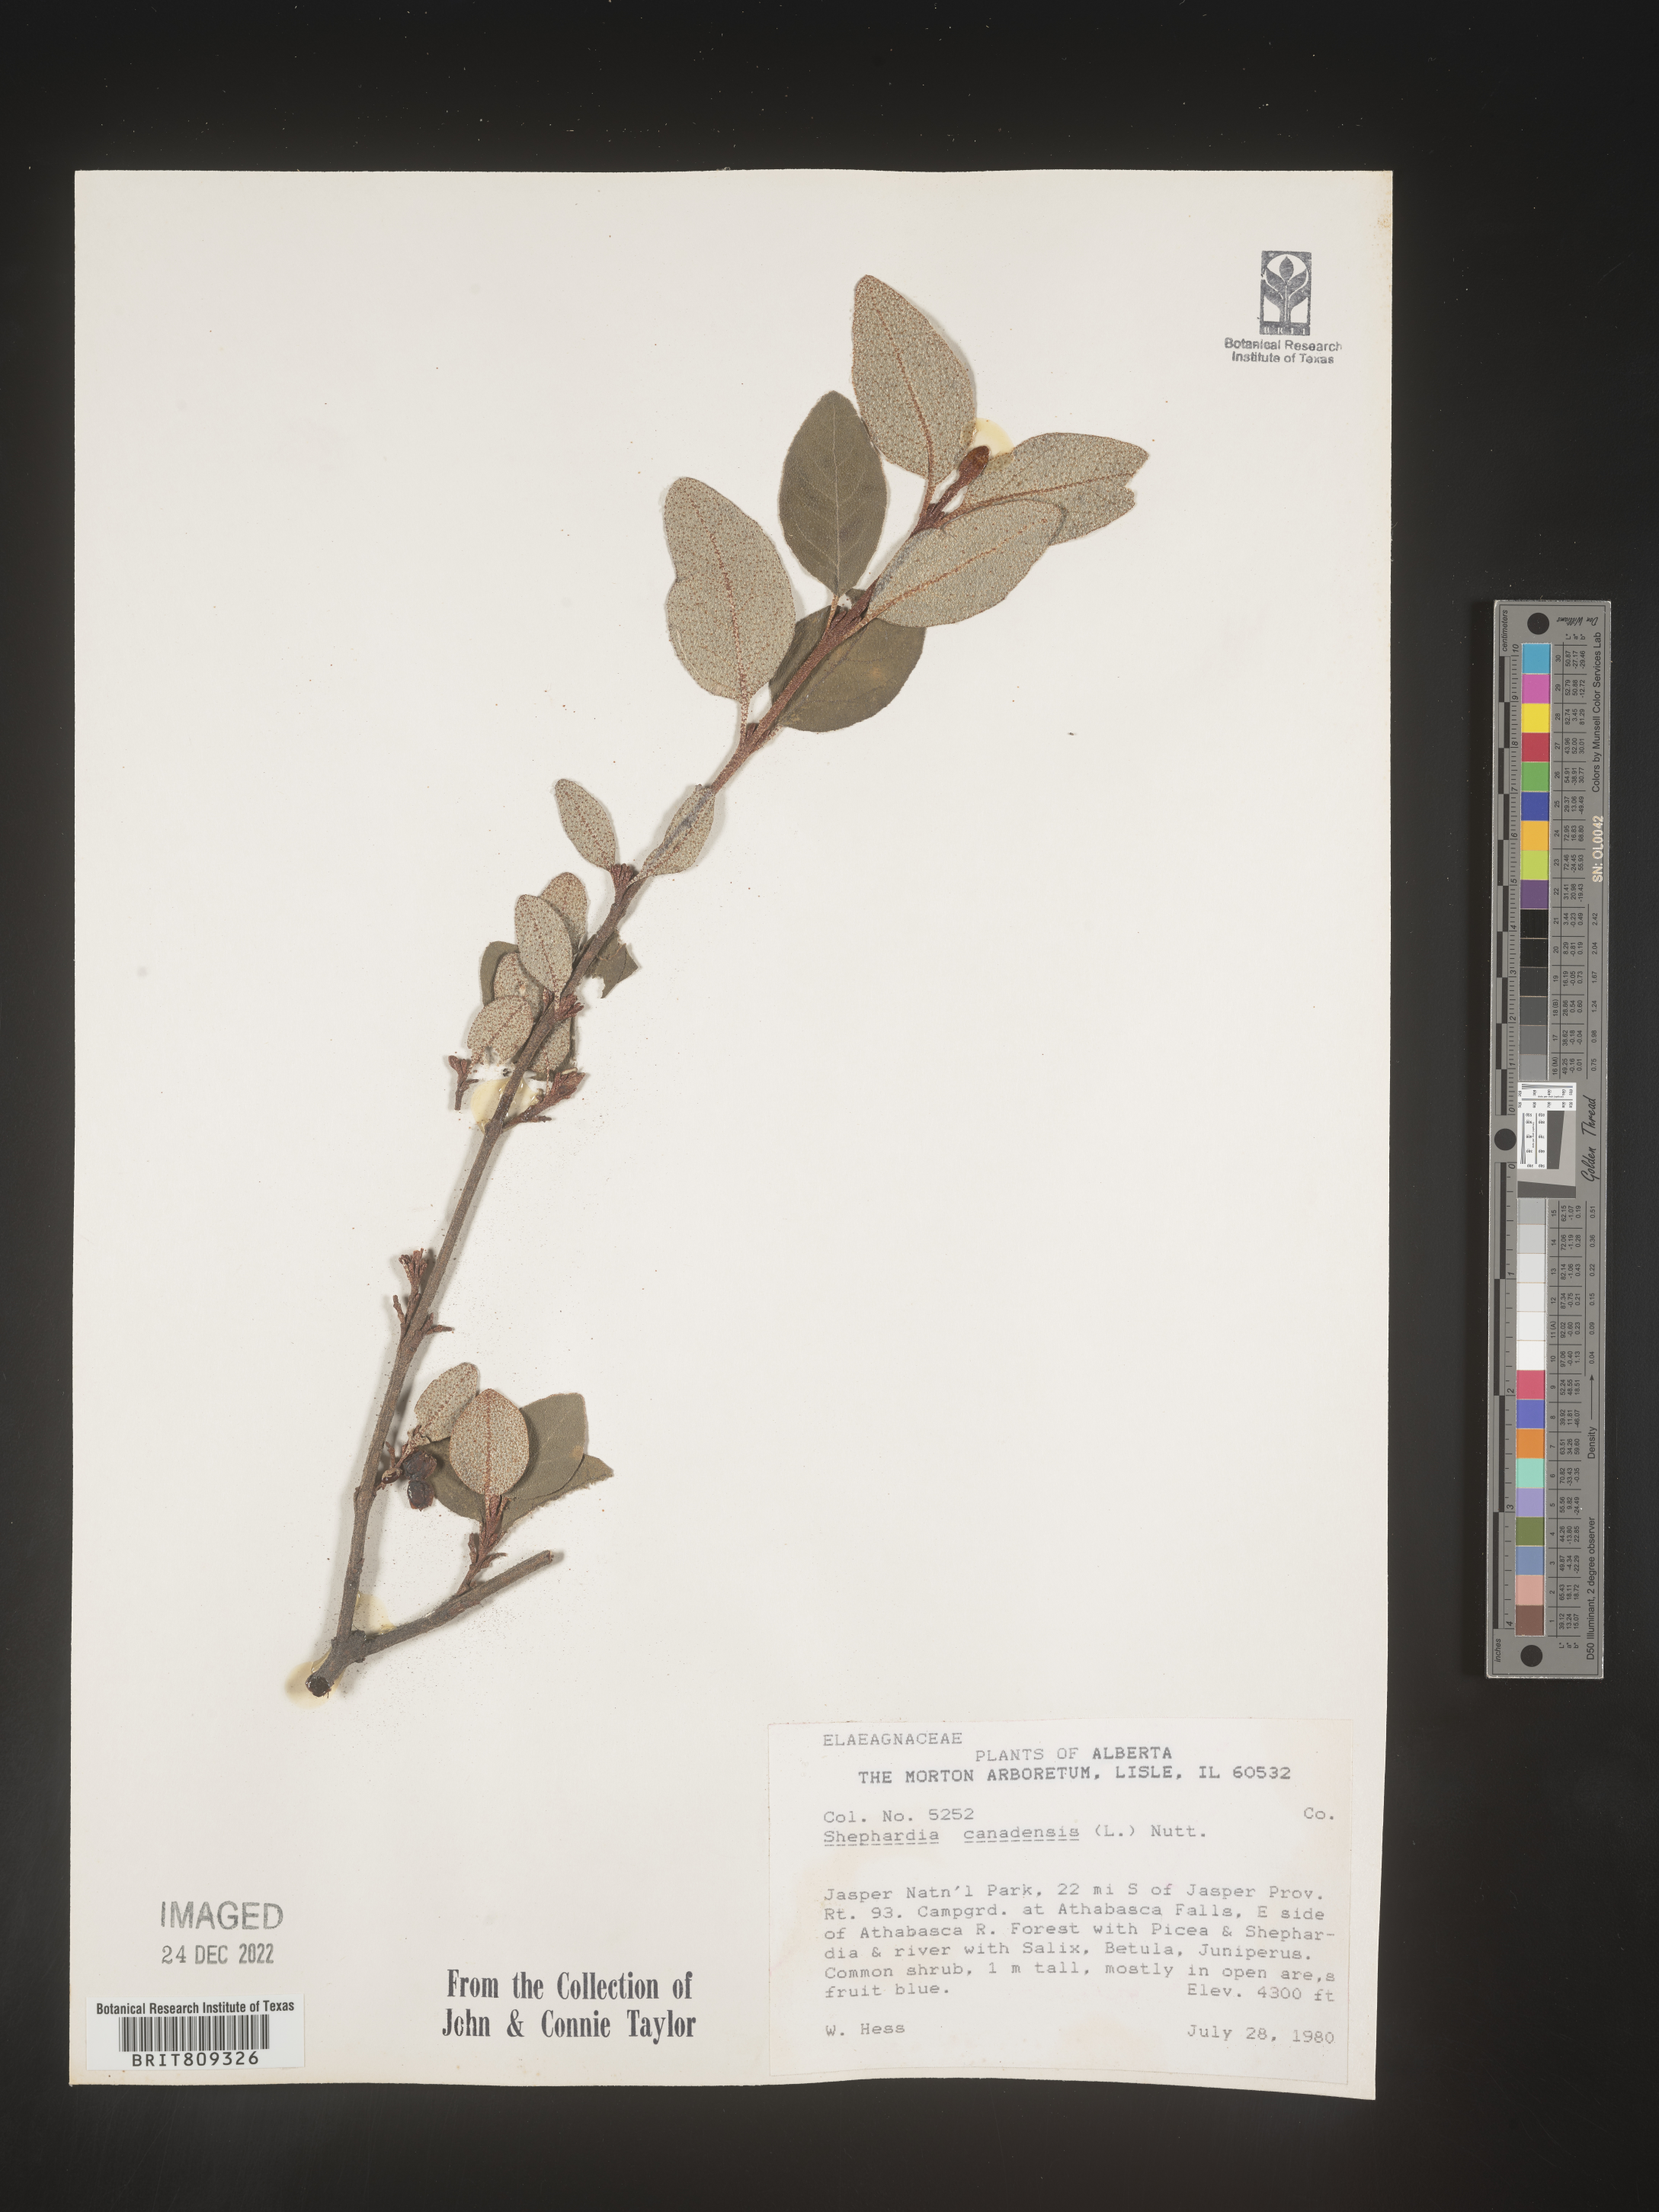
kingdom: Plantae
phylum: Tracheophyta
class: Magnoliopsida
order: Rosales
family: Elaeagnaceae
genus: Shepherdia
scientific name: Shepherdia canadensis
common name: Soapberry
